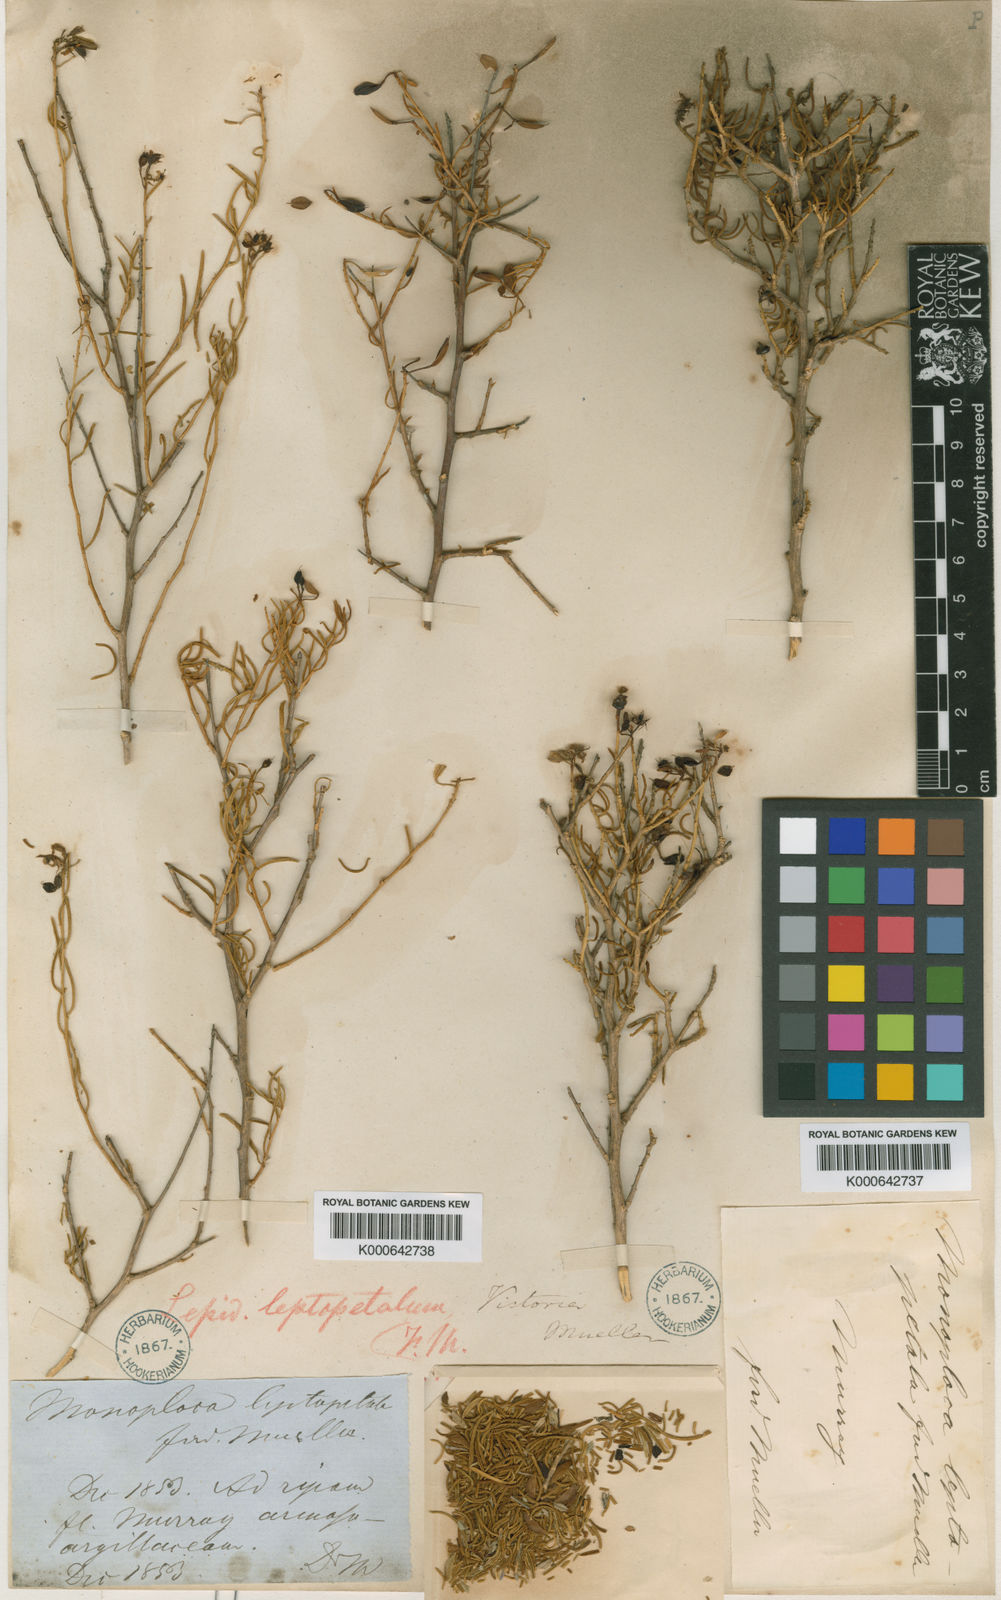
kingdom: Plantae
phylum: Tracheophyta
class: Magnoliopsida
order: Brassicales
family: Brassicaceae
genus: Lepidium
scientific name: Lepidium leptopetalum
